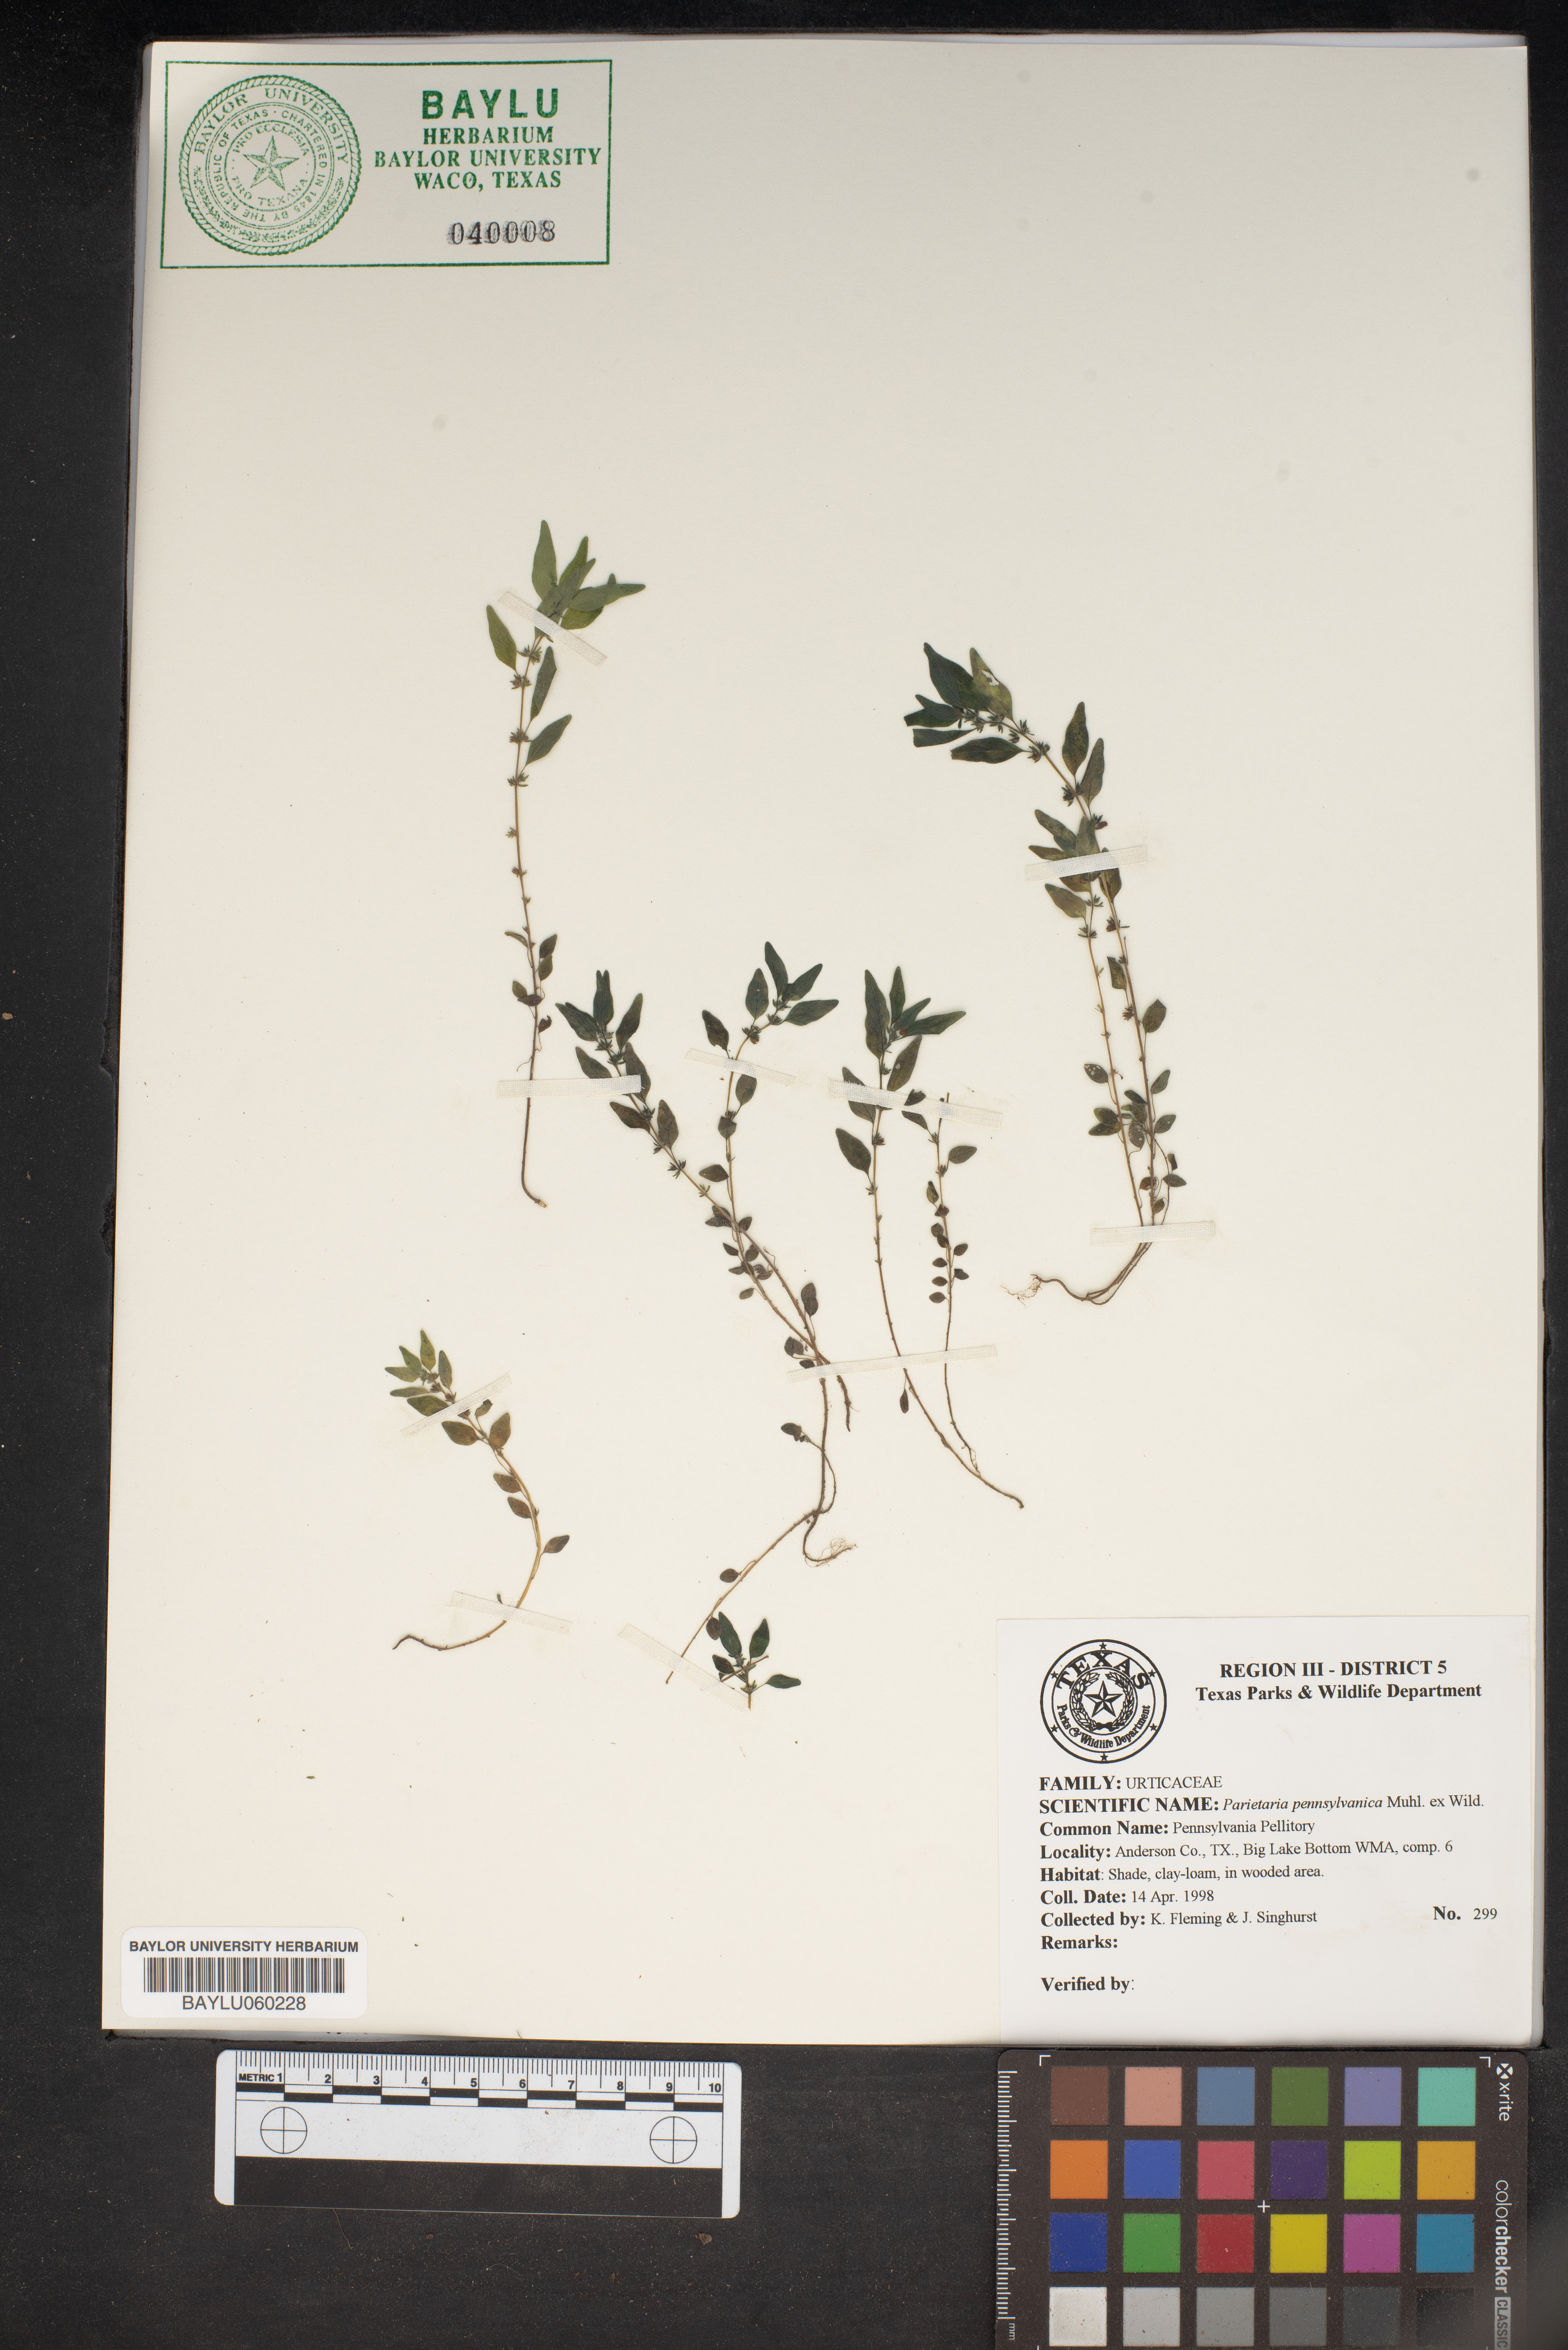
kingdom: Plantae
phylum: Tracheophyta
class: Magnoliopsida
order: Rosales
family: Urticaceae
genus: Parietaria
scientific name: Parietaria pensylvanica
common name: Pennsylvania pellitory
